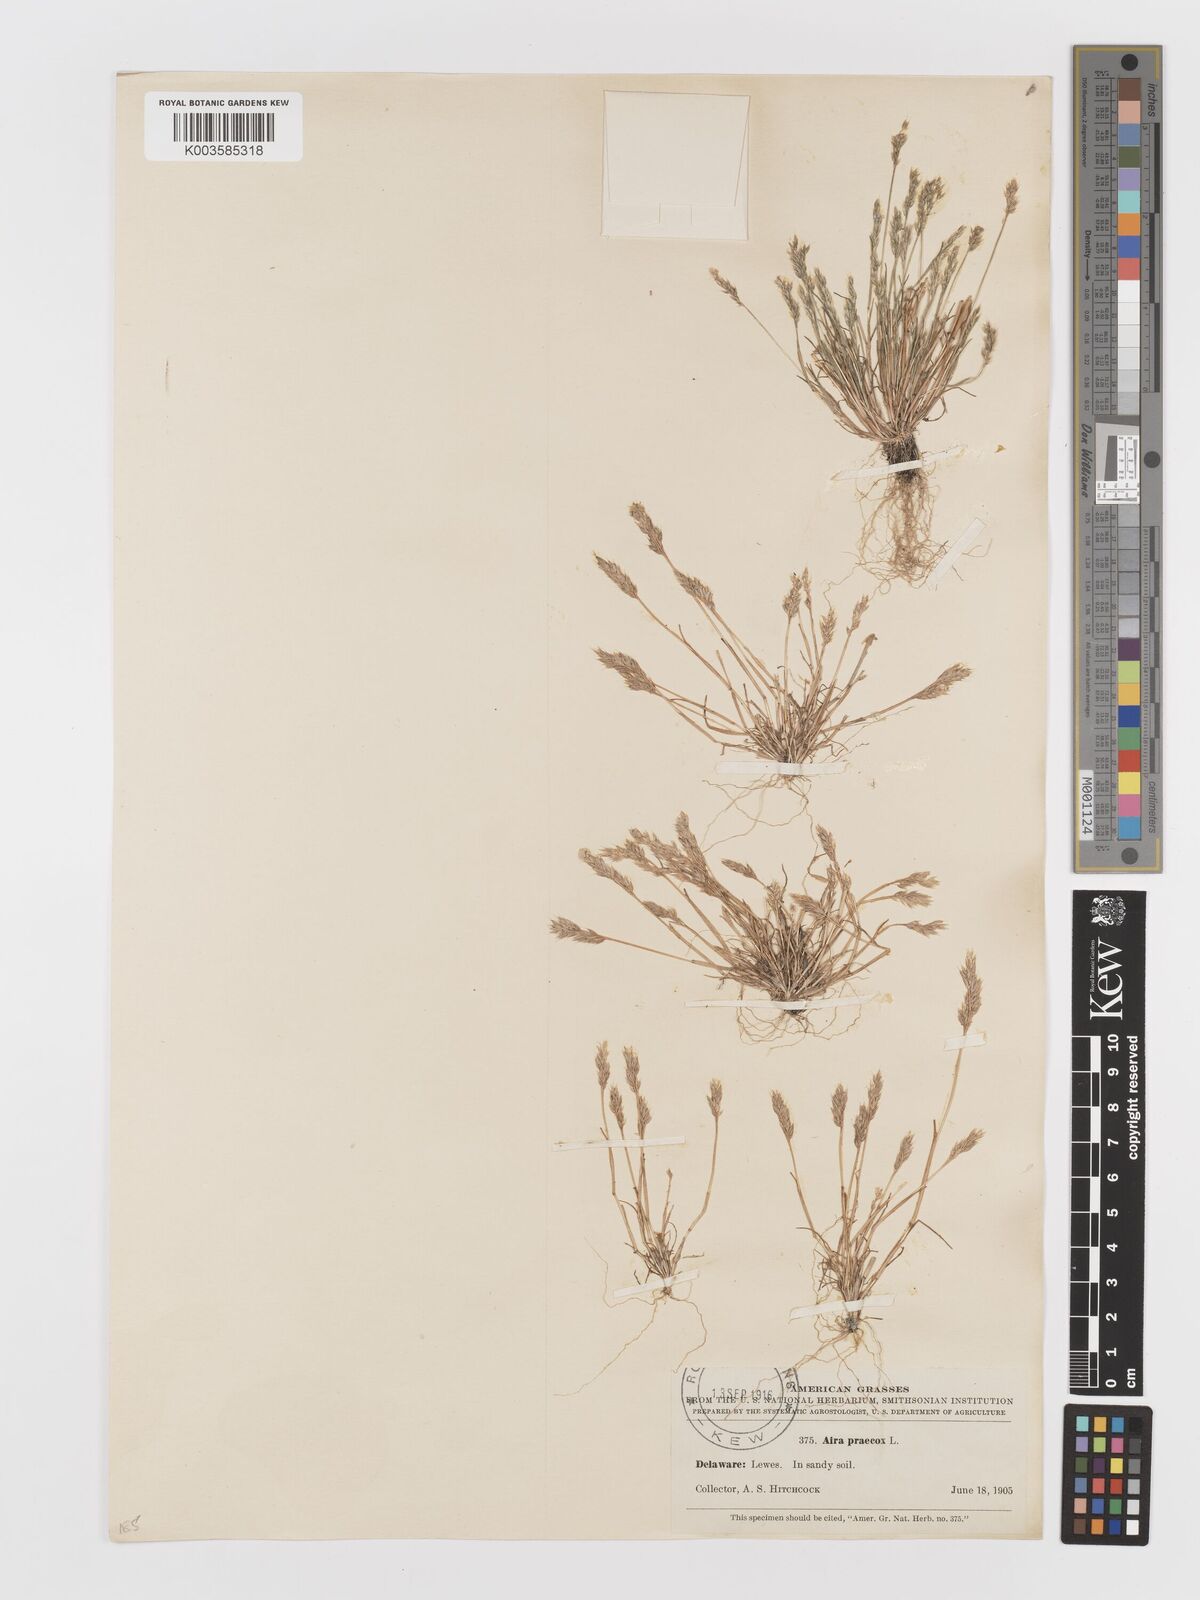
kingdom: Plantae
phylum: Tracheophyta
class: Liliopsida
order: Poales
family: Poaceae
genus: Aira
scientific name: Aira praecox
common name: Early hair-grass
